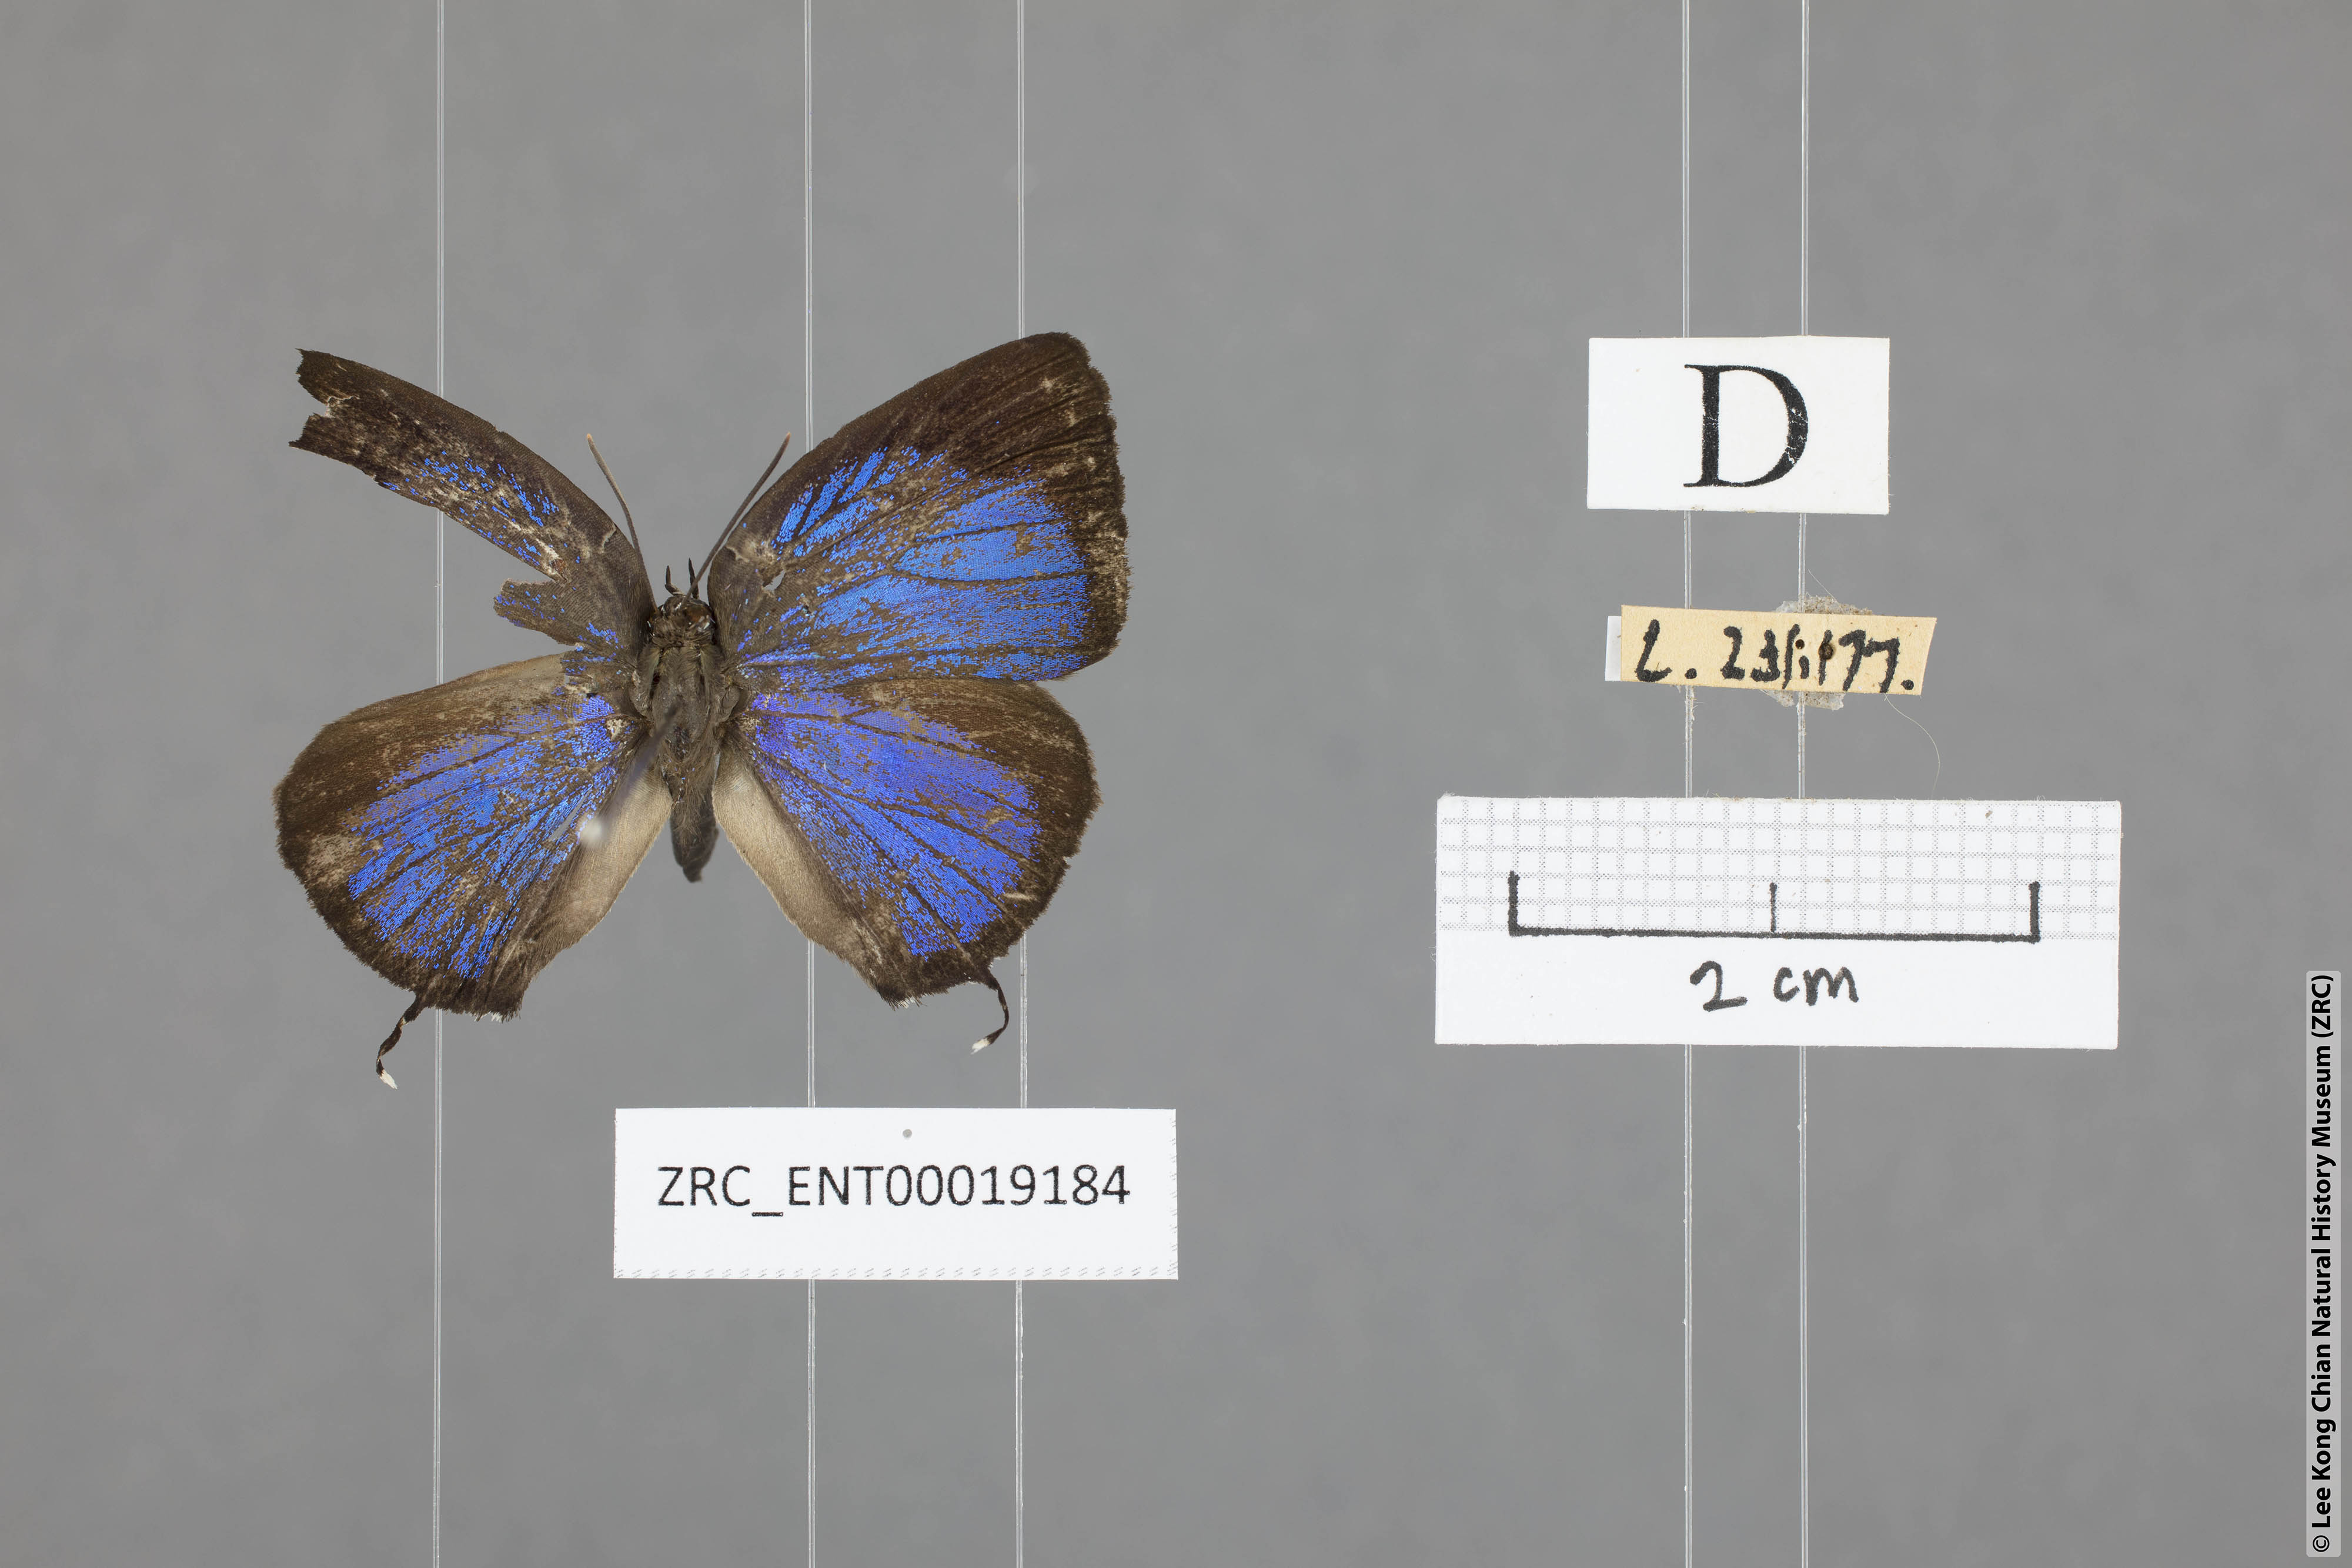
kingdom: Animalia
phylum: Arthropoda
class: Insecta
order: Lepidoptera
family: Lycaenidae
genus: Arhopala
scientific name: Arhopala ariana
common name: Pinkish-washed oakblue
